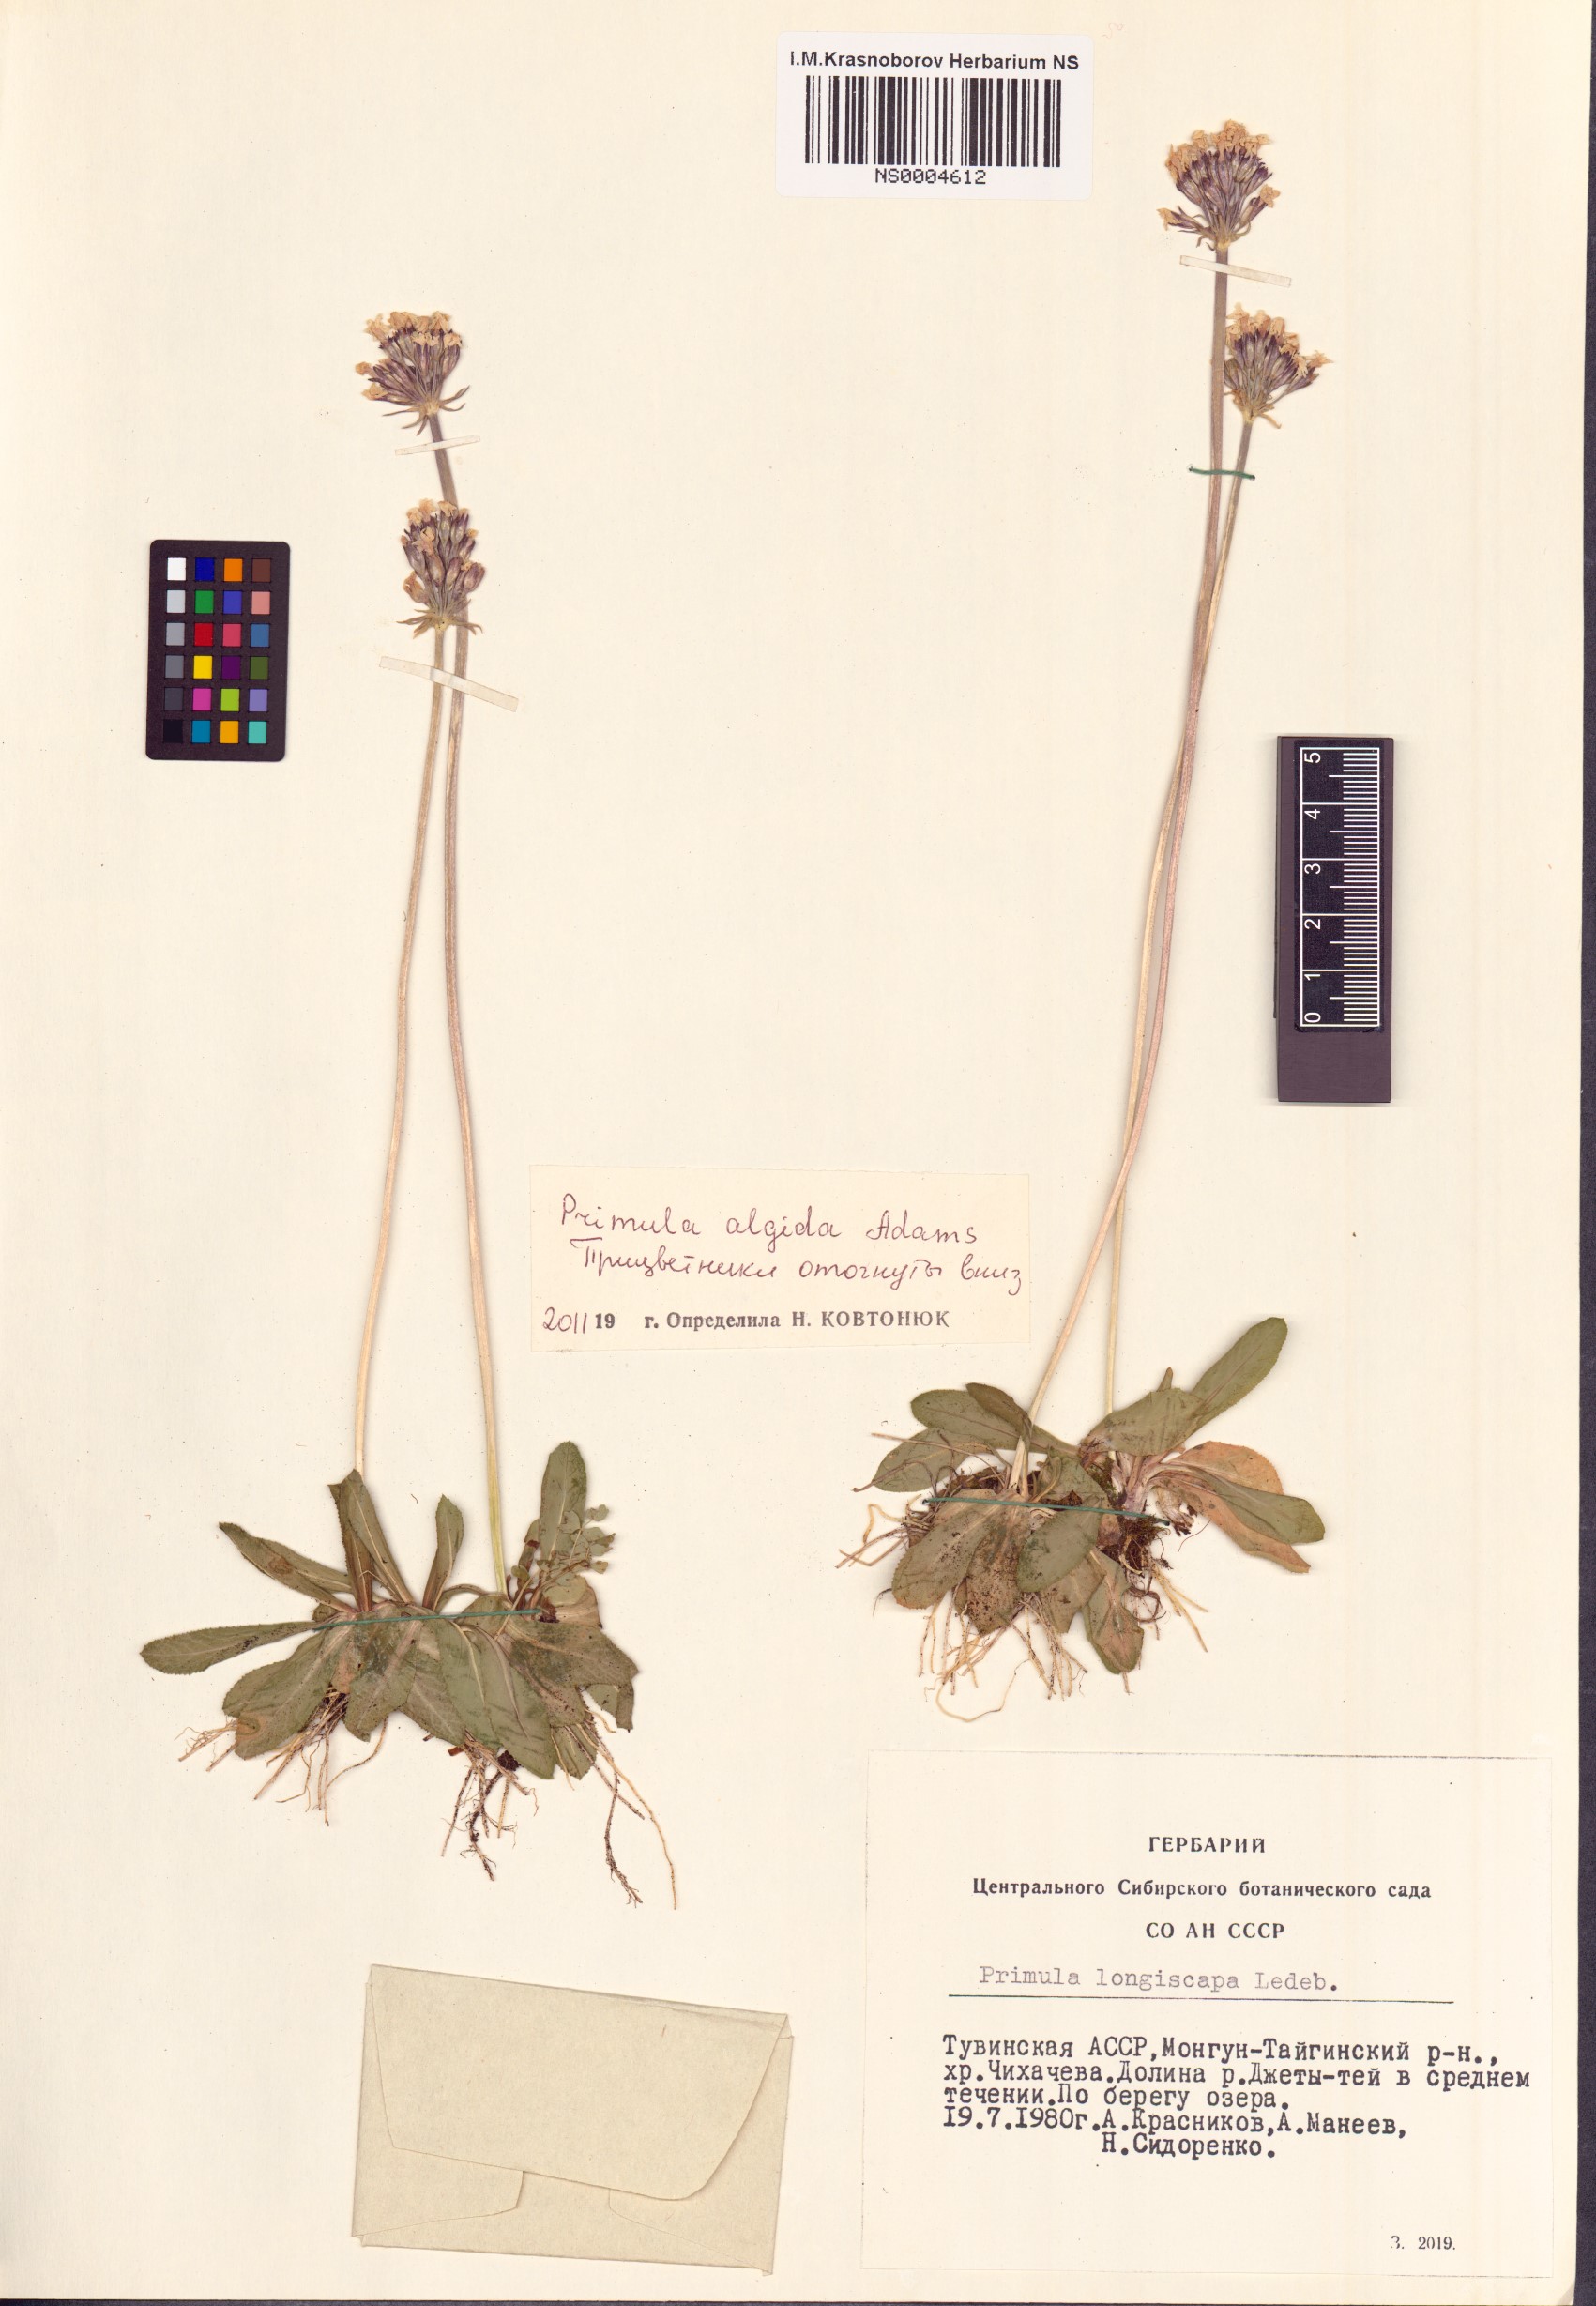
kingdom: Plantae
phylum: Tracheophyta
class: Magnoliopsida
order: Ericales
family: Primulaceae
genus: Primula
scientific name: Primula algida
